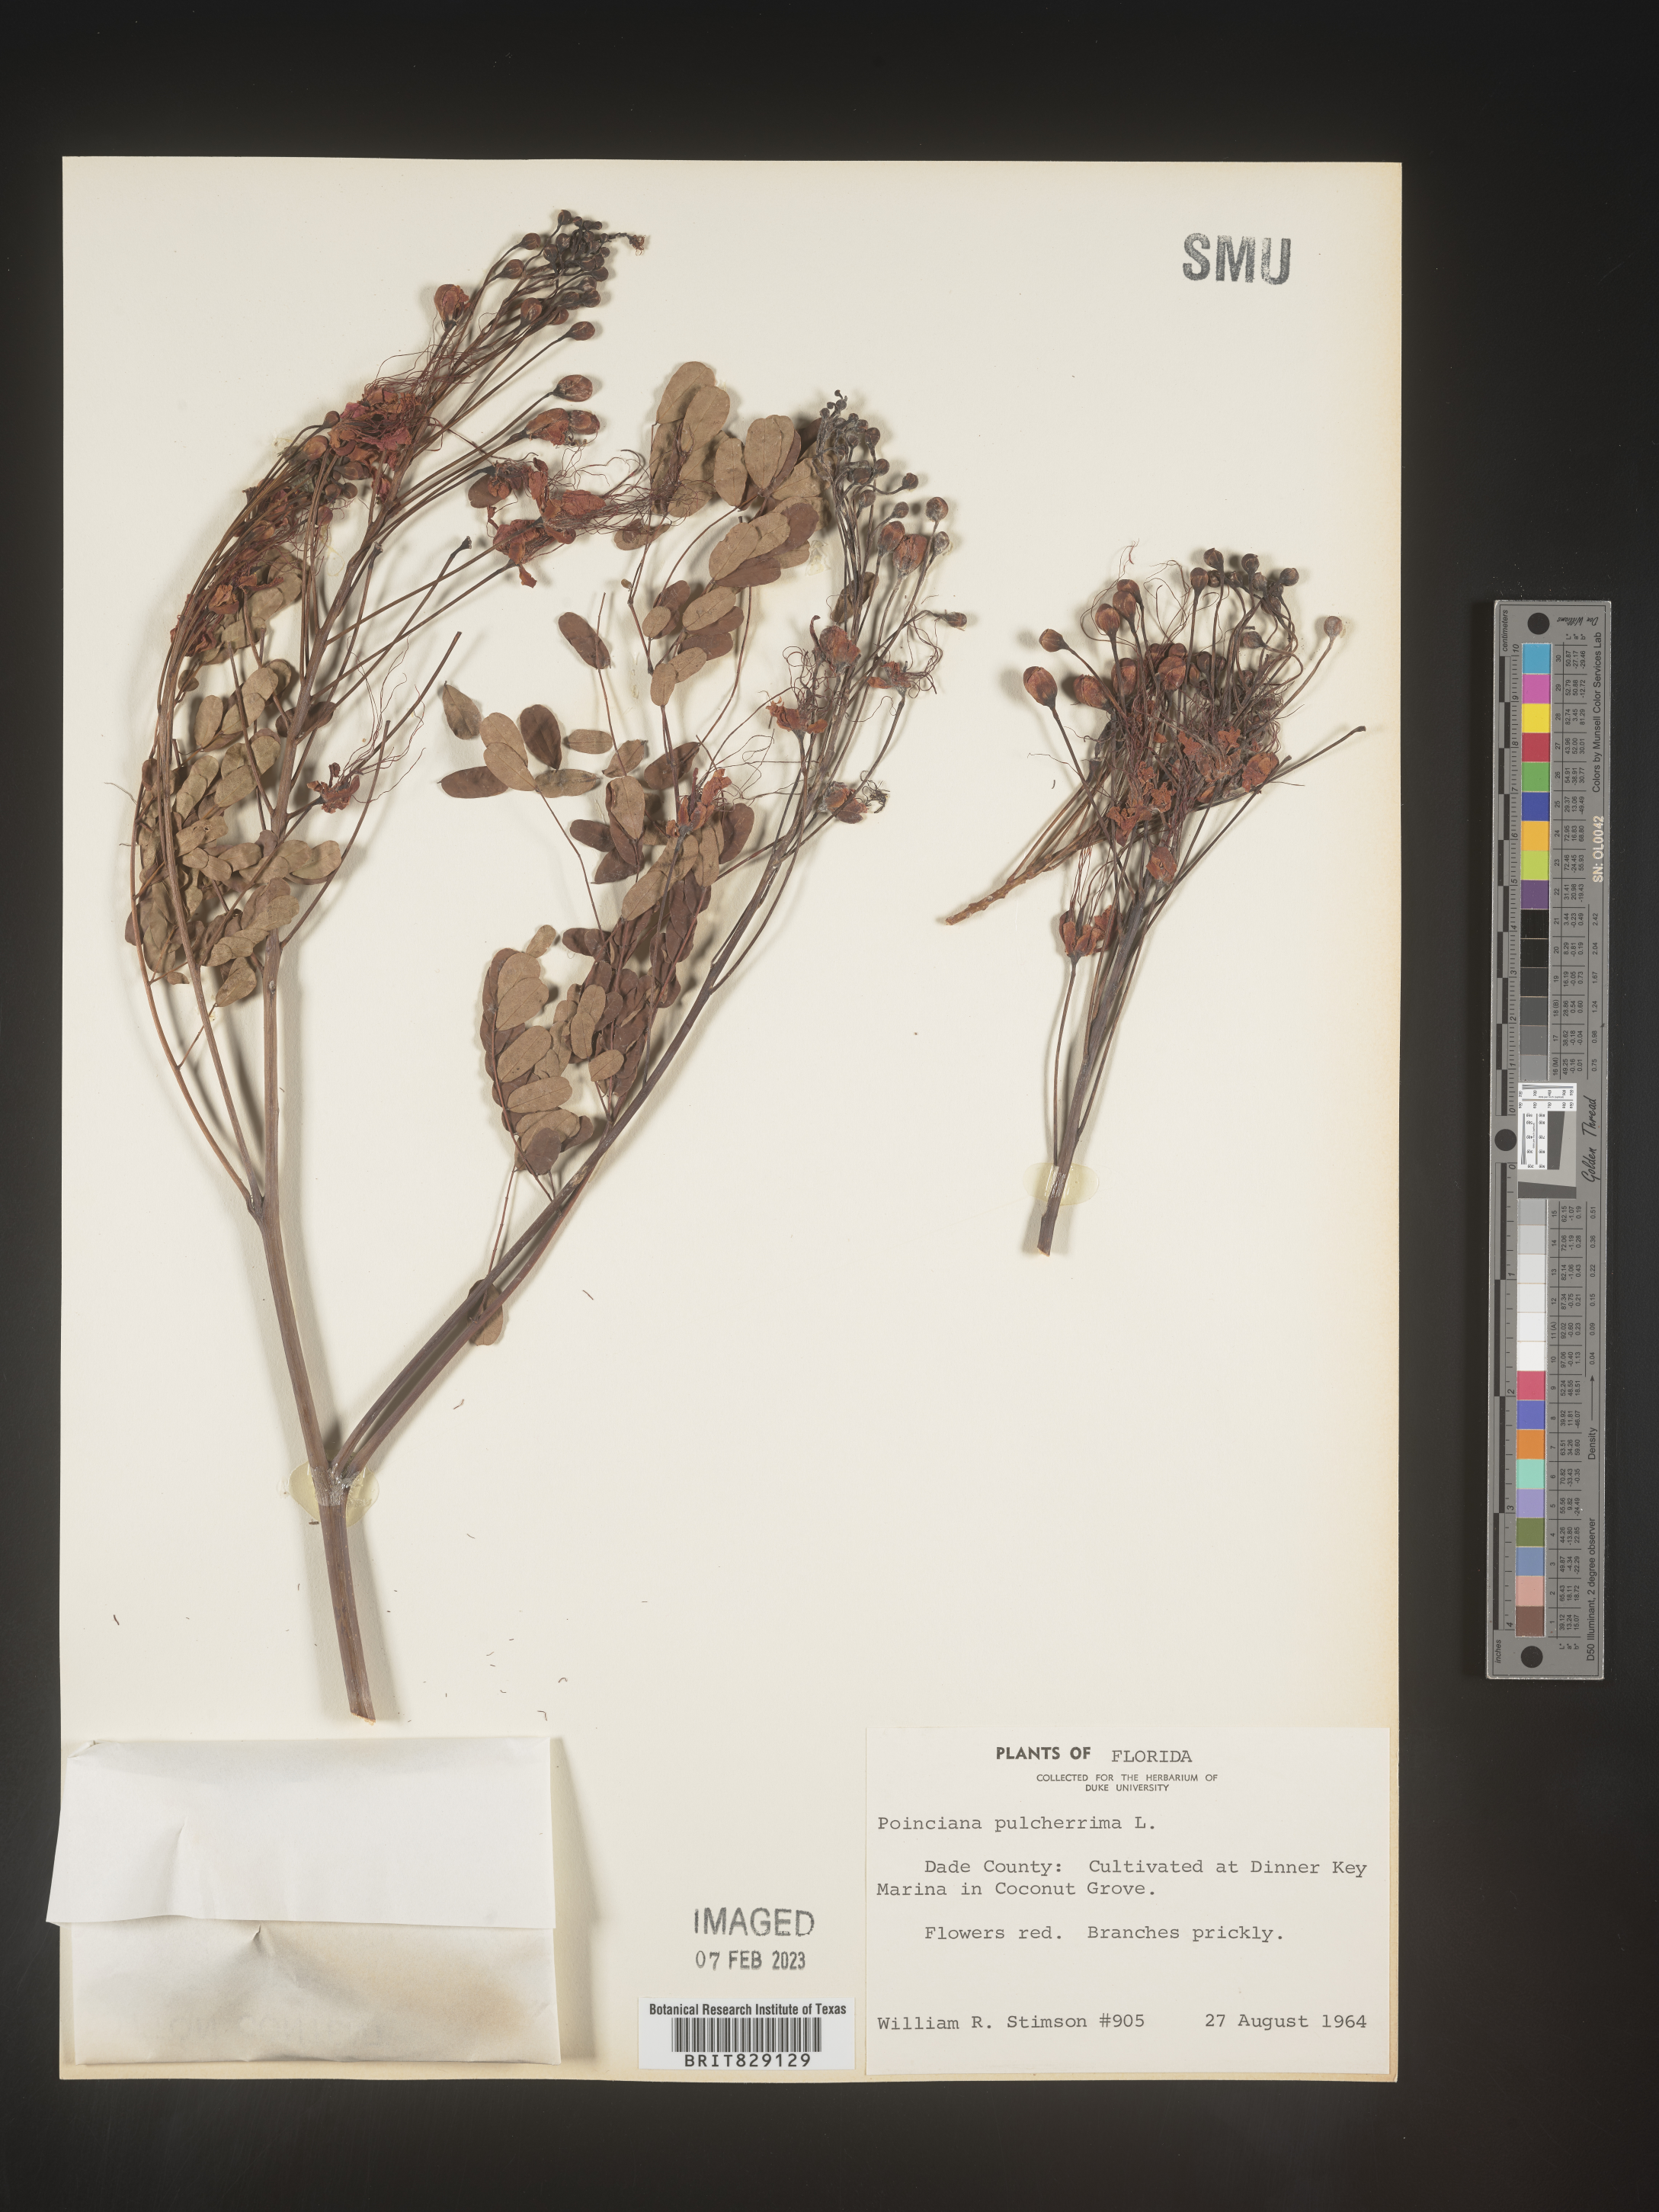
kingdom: Plantae
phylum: Tracheophyta
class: Magnoliopsida
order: Fabales
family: Fabaceae
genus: Caesalpinia
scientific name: Caesalpinia
